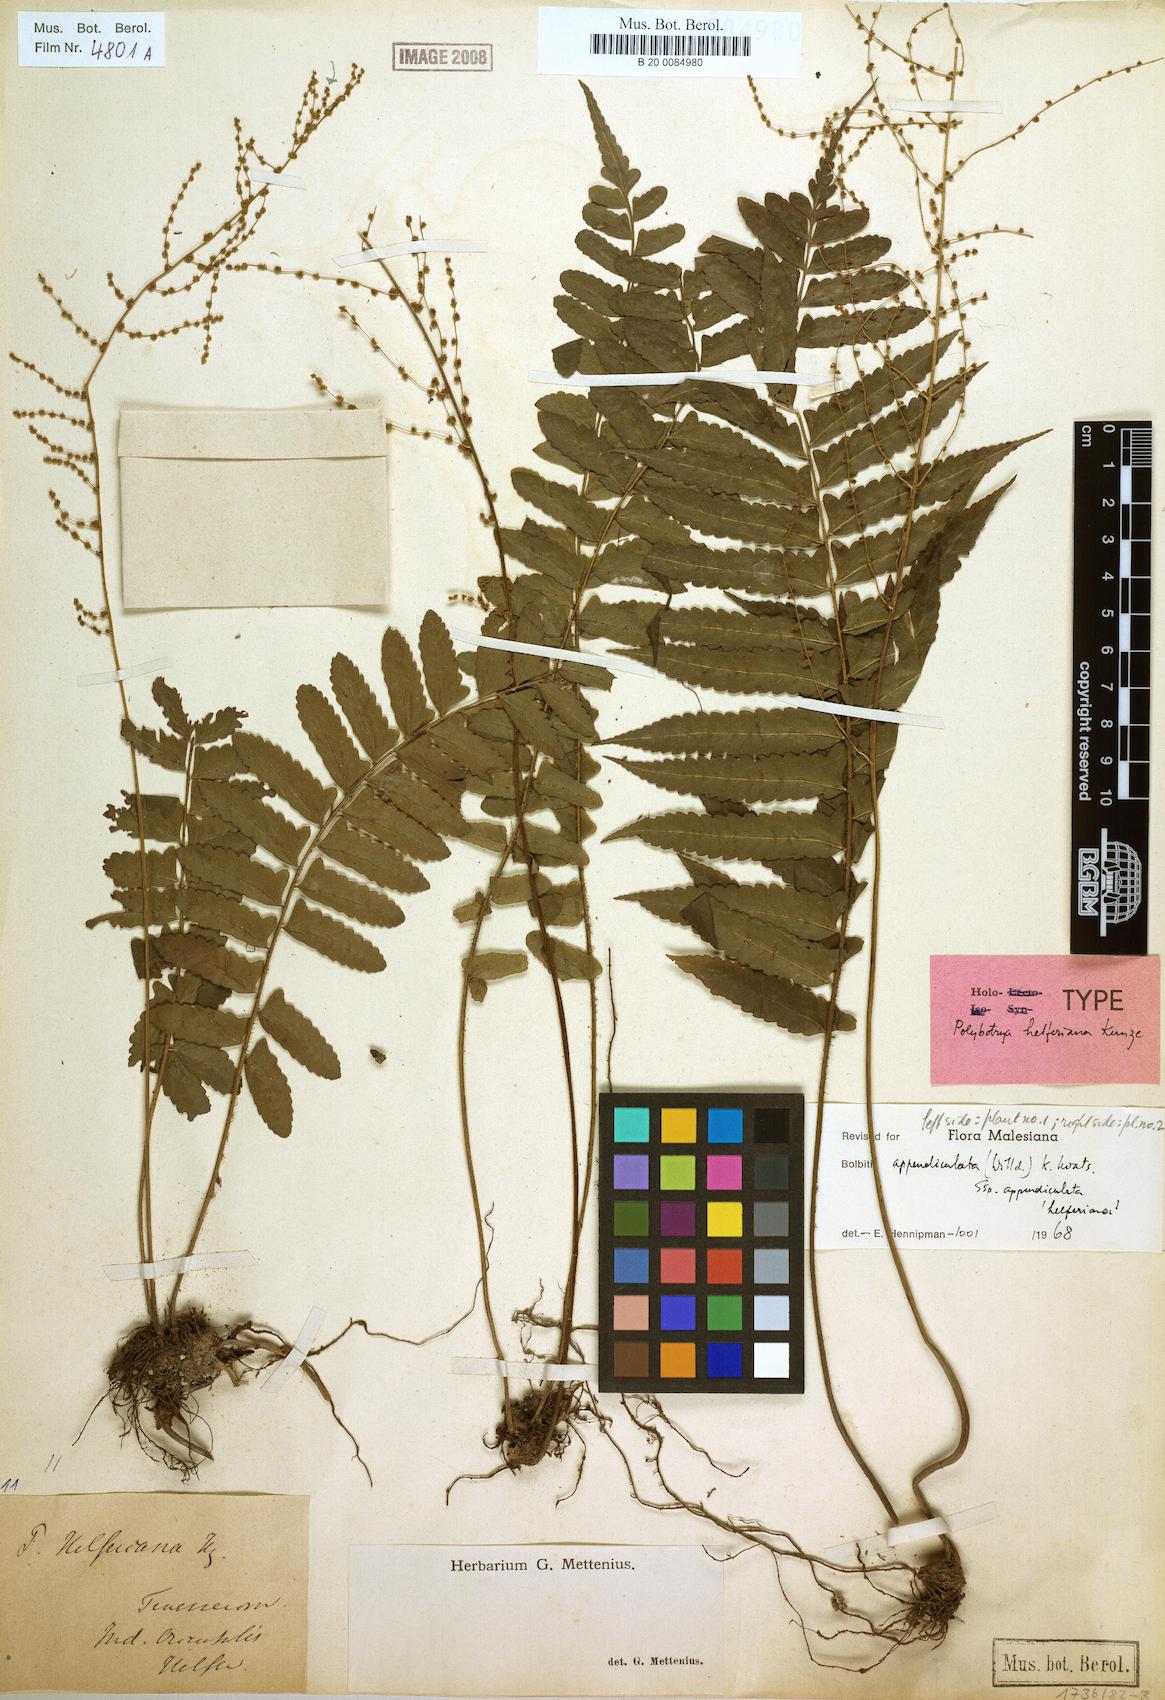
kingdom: Plantae
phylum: Tracheophyta
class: Polypodiopsida
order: Polypodiales
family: Dryopteridaceae
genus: Bolbitis
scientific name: Bolbitis appendiculata
